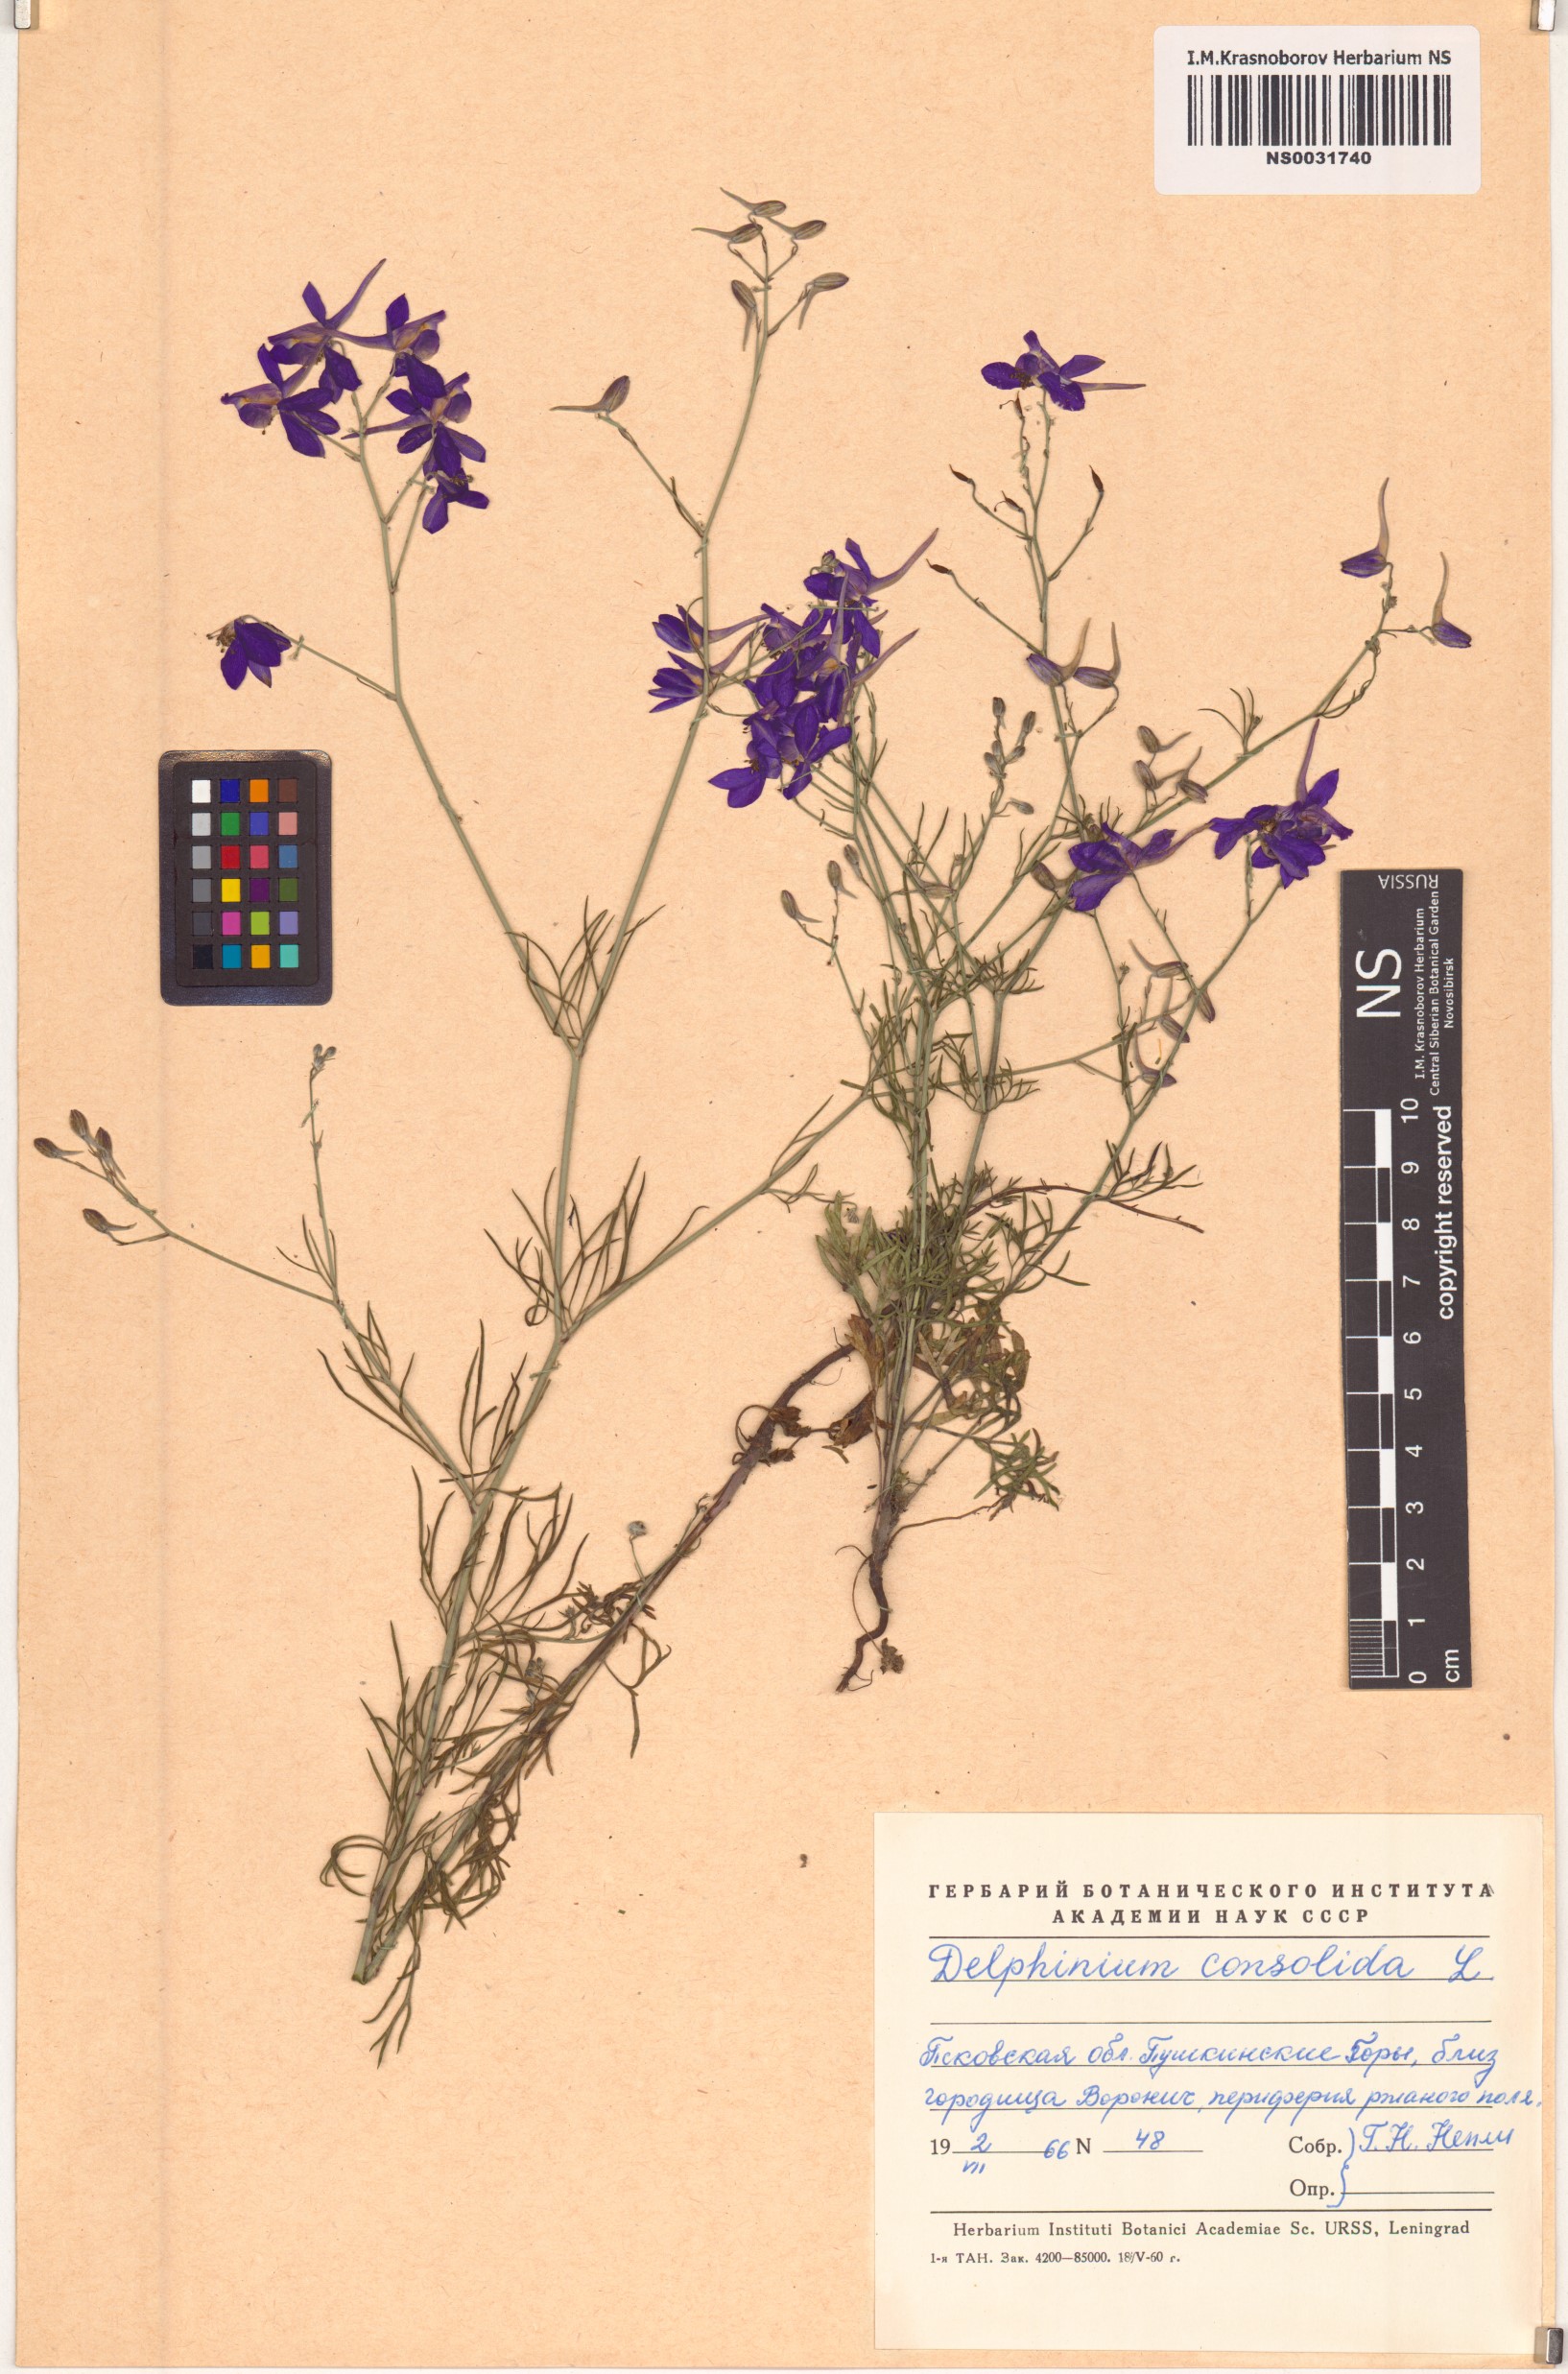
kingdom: Plantae
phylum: Tracheophyta
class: Magnoliopsida
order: Ranunculales
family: Ranunculaceae
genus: Delphinium
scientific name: Delphinium consolida
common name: Branching larkspur
